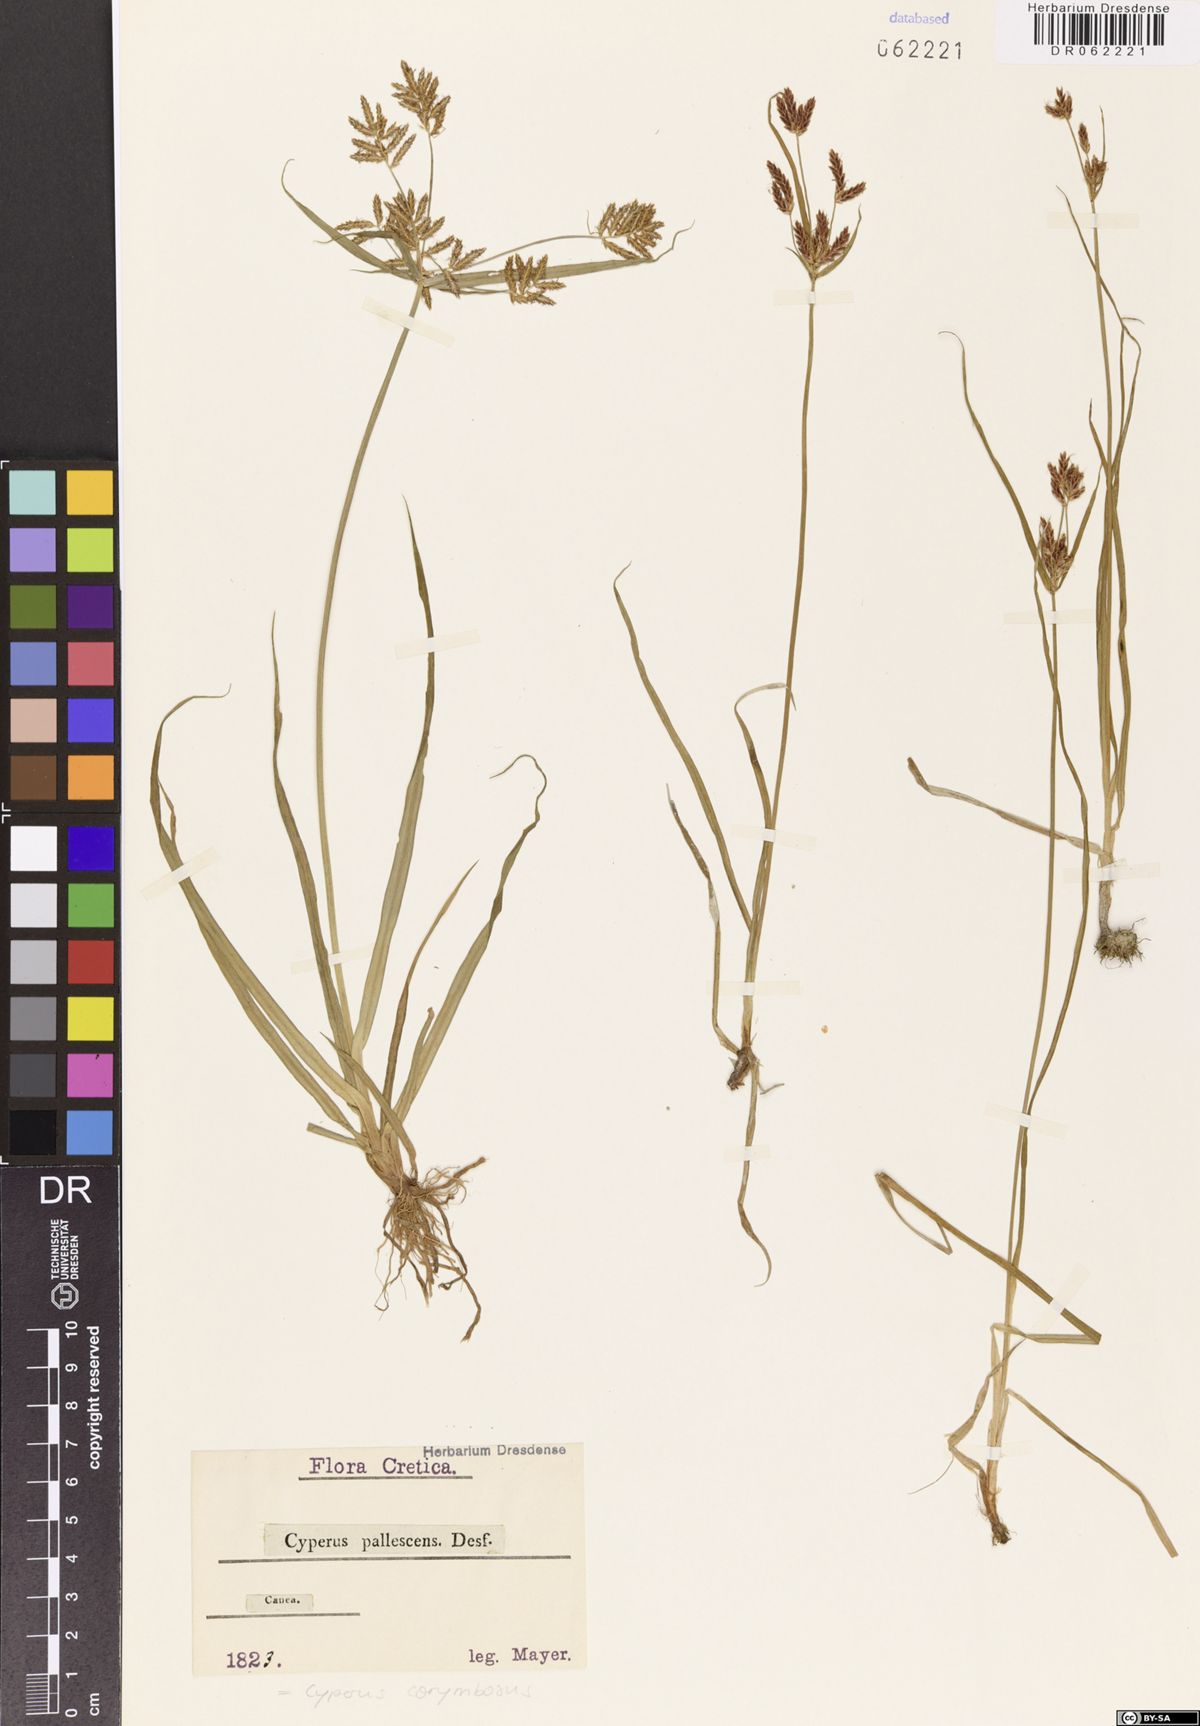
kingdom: Plantae
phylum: Tracheophyta
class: Liliopsida
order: Poales
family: Cyperaceae
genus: Cyperus
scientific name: Cyperus corymbosus
